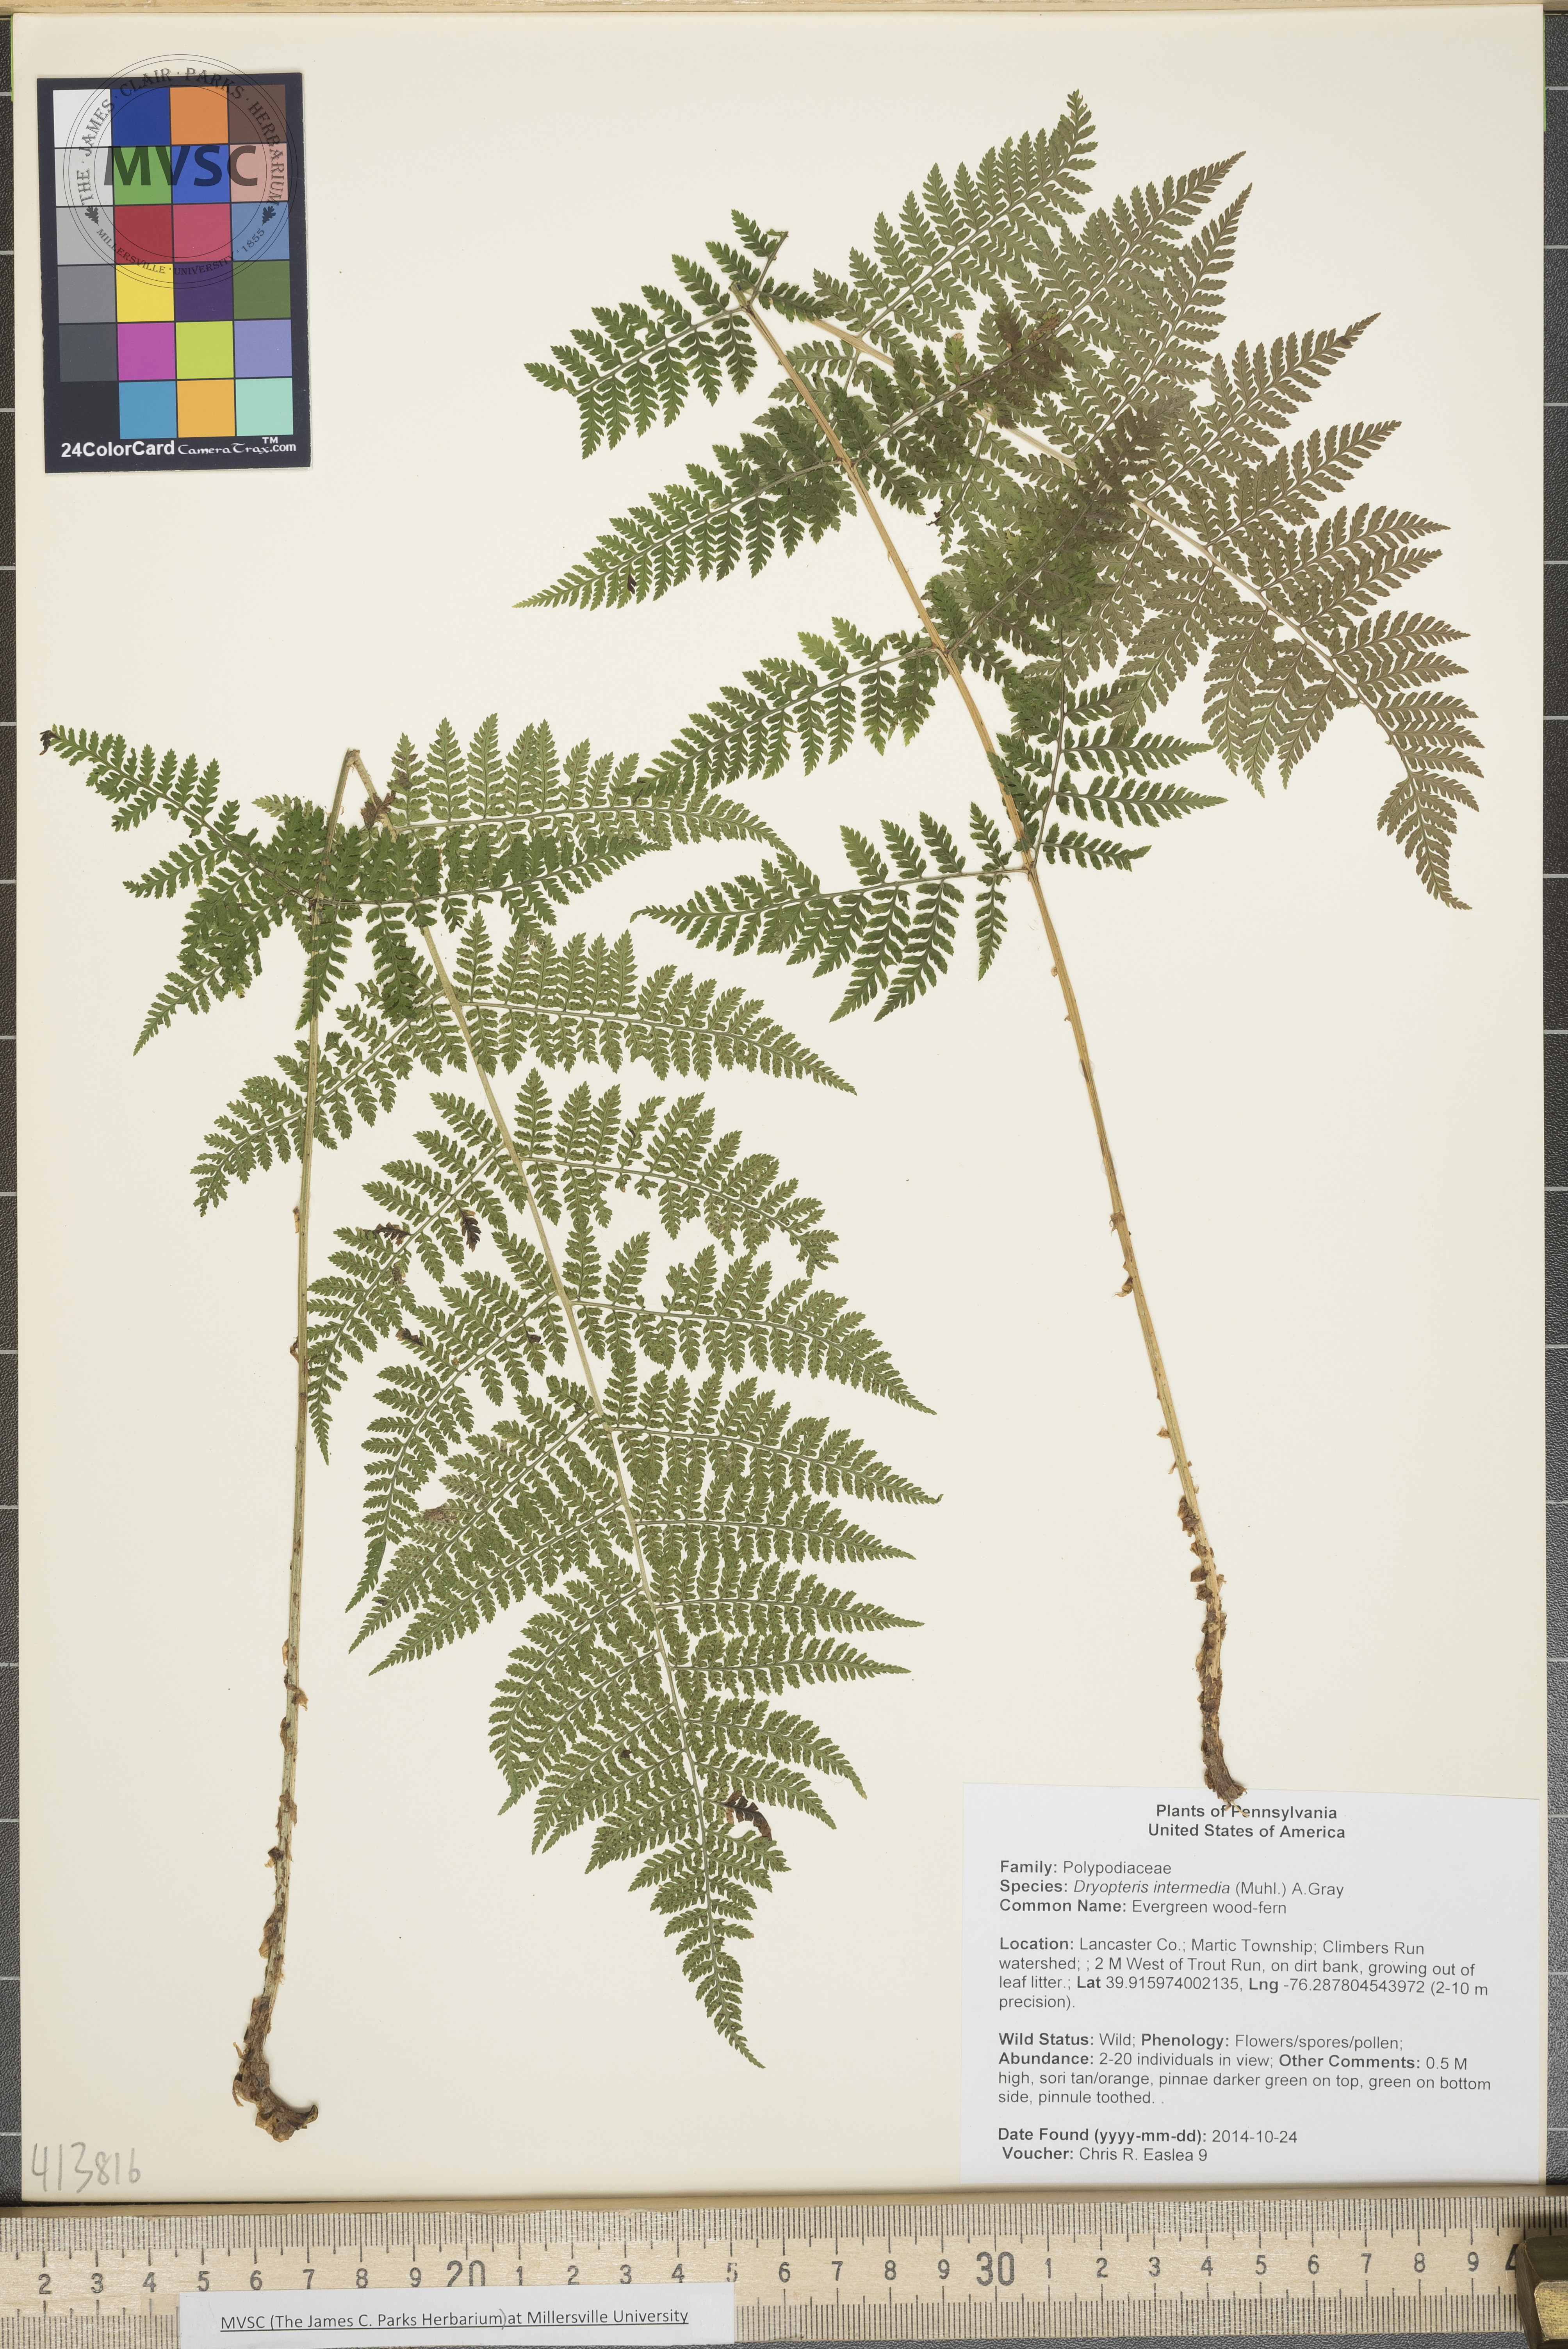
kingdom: Plantae
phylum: Tracheophyta
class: Polypodiopsida
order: Polypodiales
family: Dryopteridaceae
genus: Dryopteris
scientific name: Dryopteris intermedia
